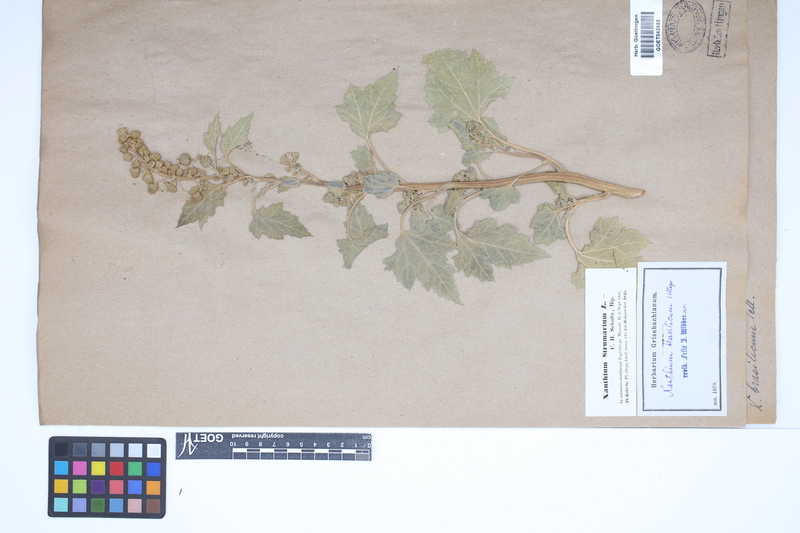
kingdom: Plantae
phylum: Tracheophyta
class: Magnoliopsida
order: Asterales
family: Asteraceae
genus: Xanthium
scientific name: Xanthium strumarium
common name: Rough cocklebur
